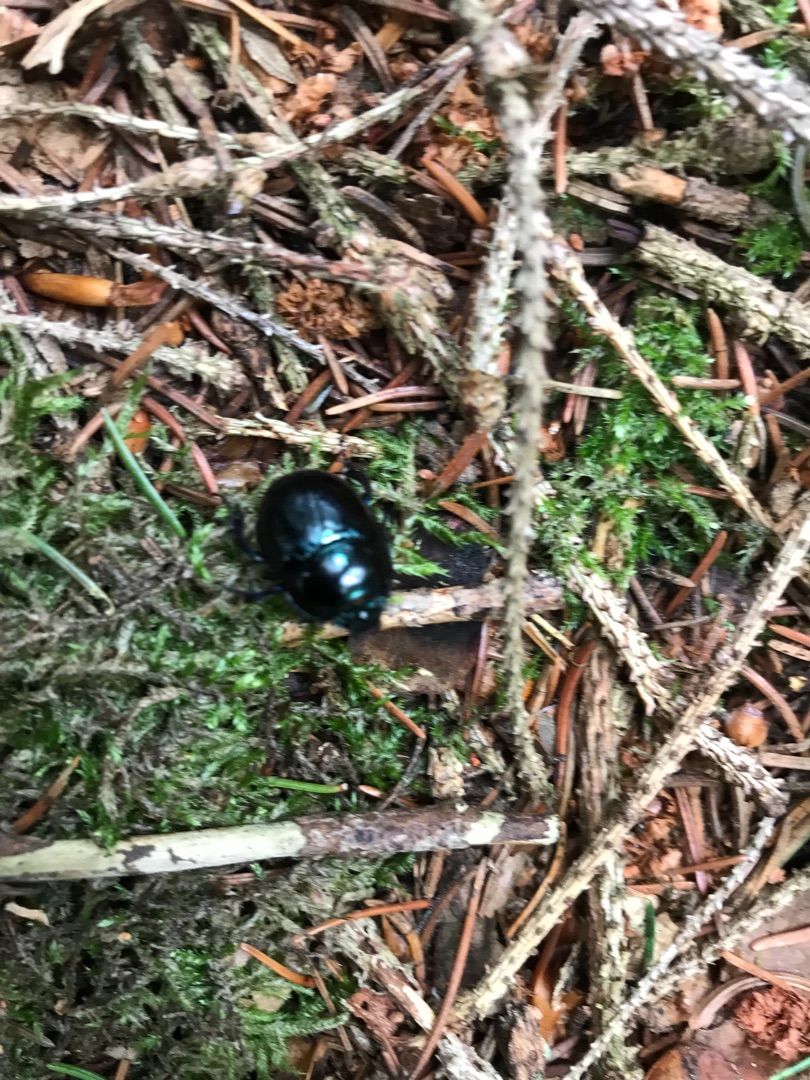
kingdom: Animalia
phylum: Arthropoda
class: Insecta
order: Coleoptera
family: Geotrupidae
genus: Anoplotrupes
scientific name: Anoplotrupes stercorosus
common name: Skovskarnbasse
